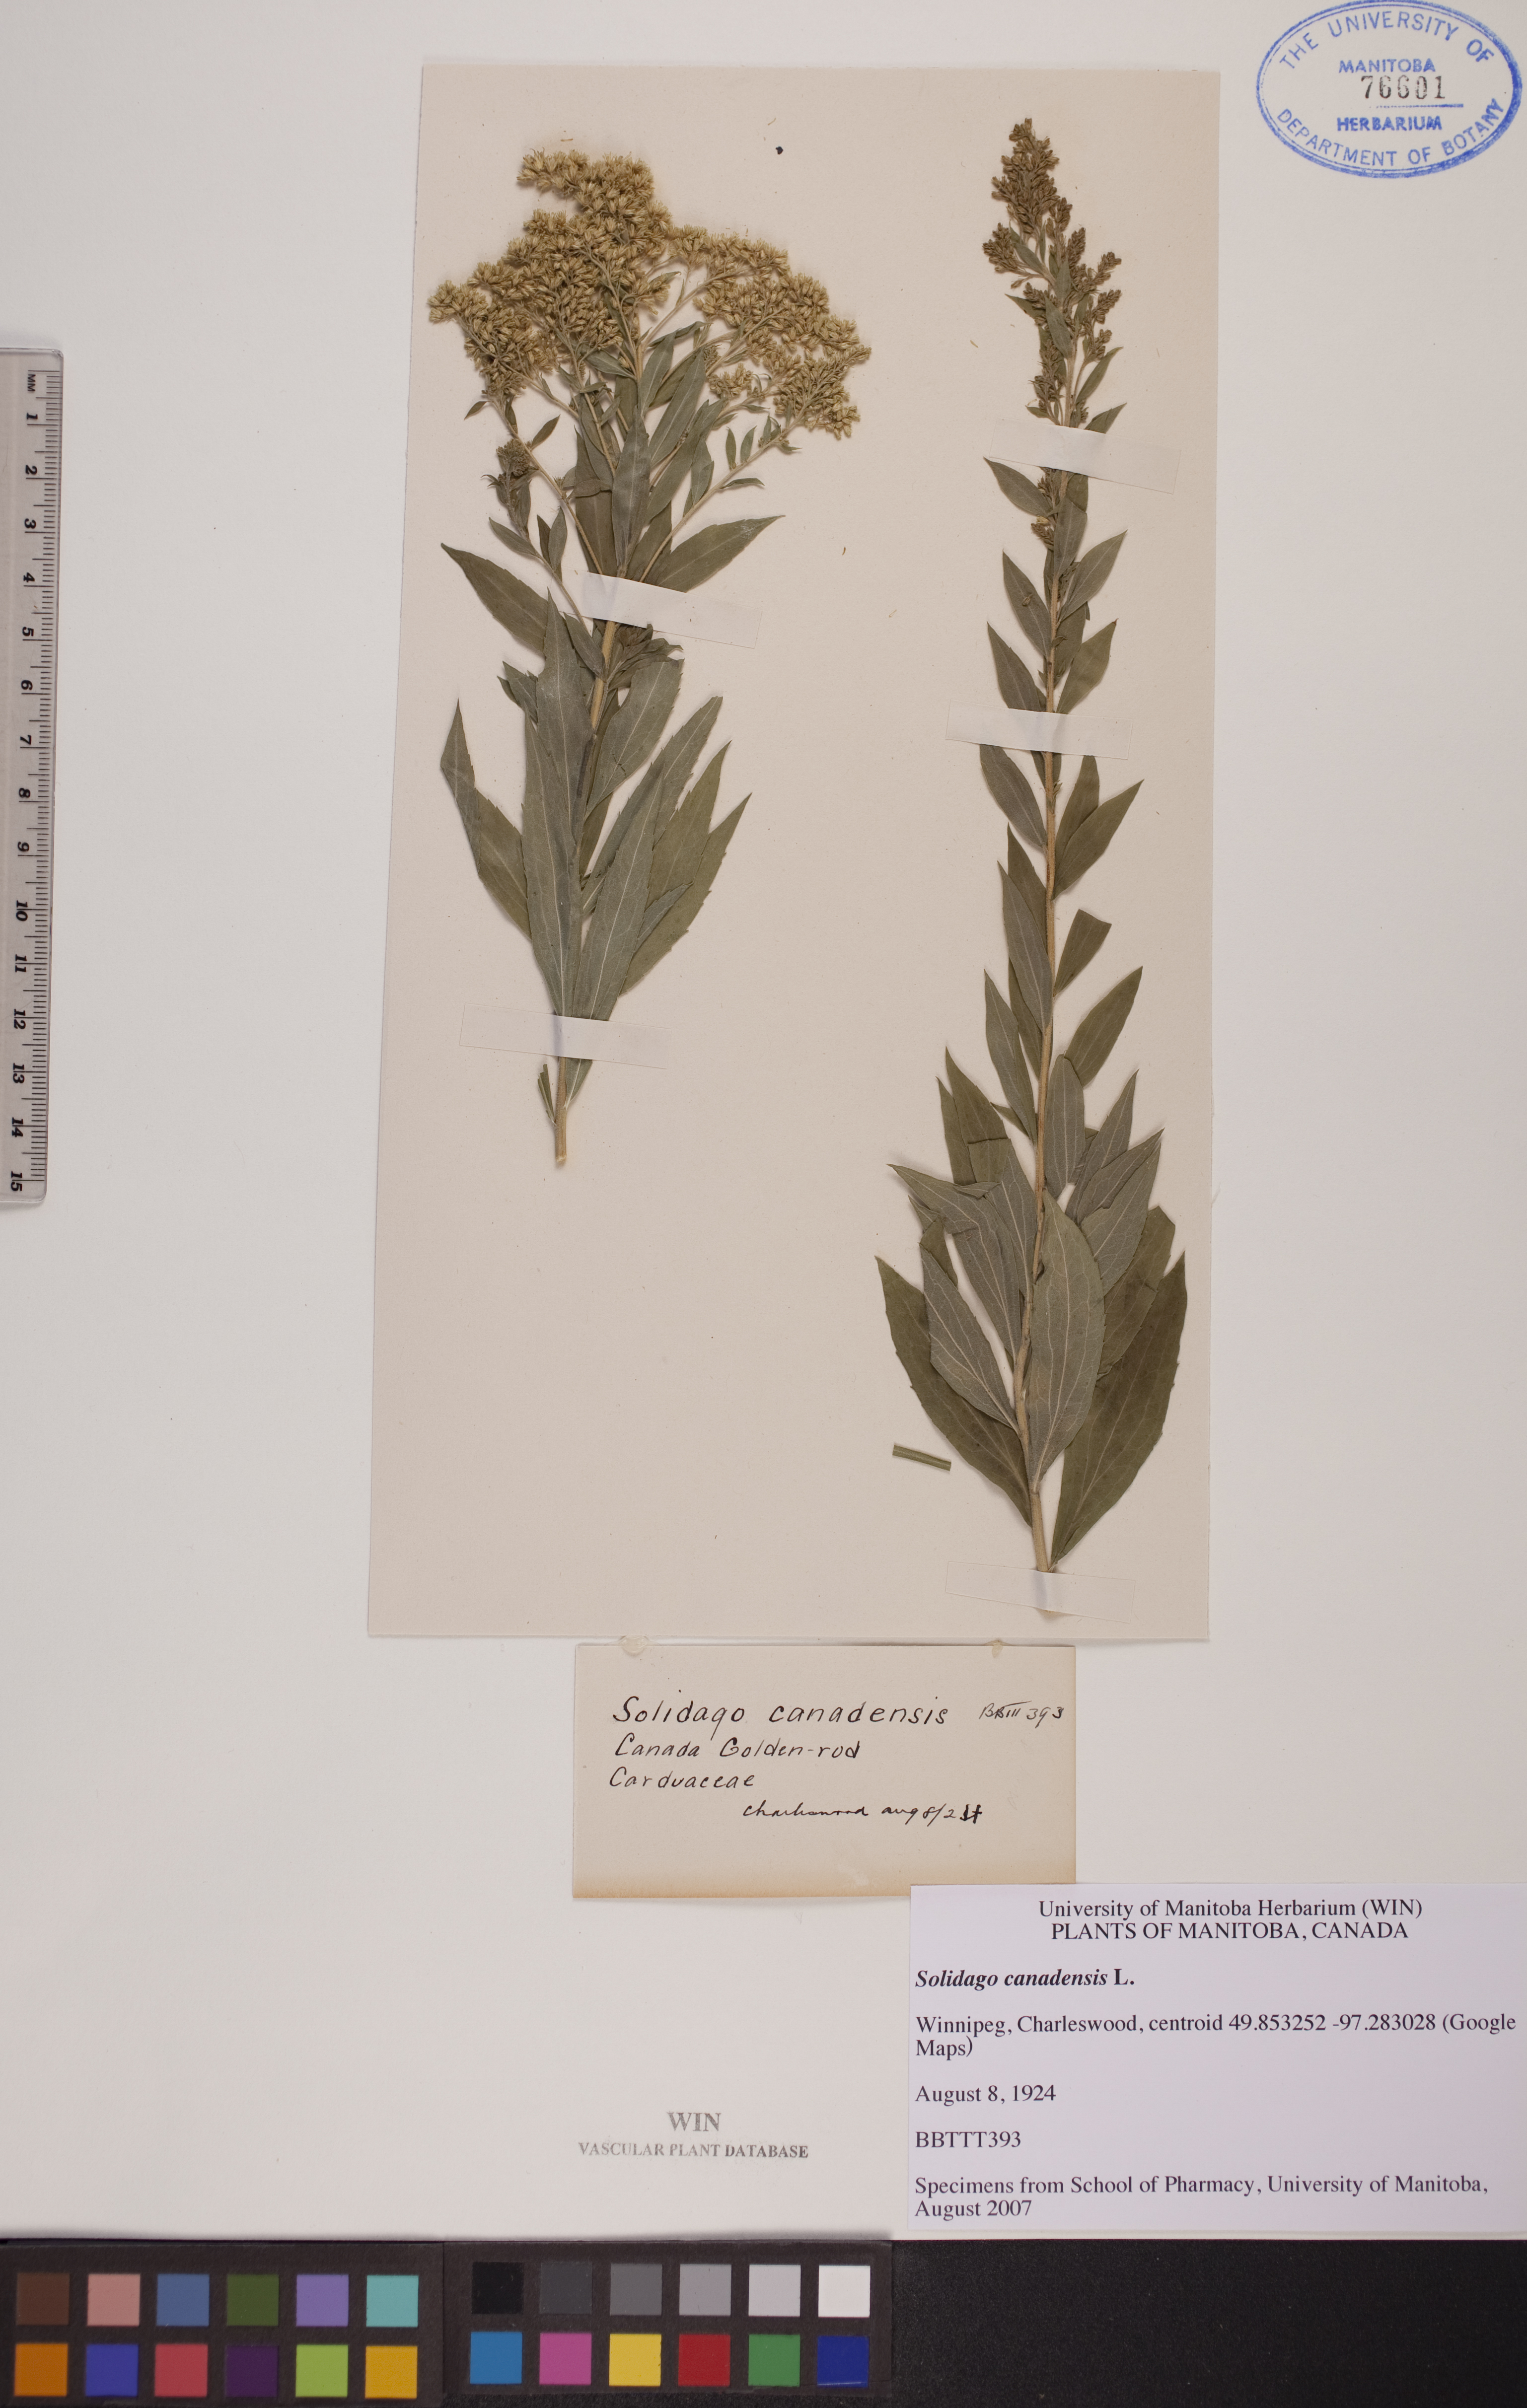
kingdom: Plantae
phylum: Tracheophyta
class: Magnoliopsida
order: Asterales
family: Asteraceae
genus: Solidago
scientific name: Solidago canadensis
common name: Canada goldenrod
